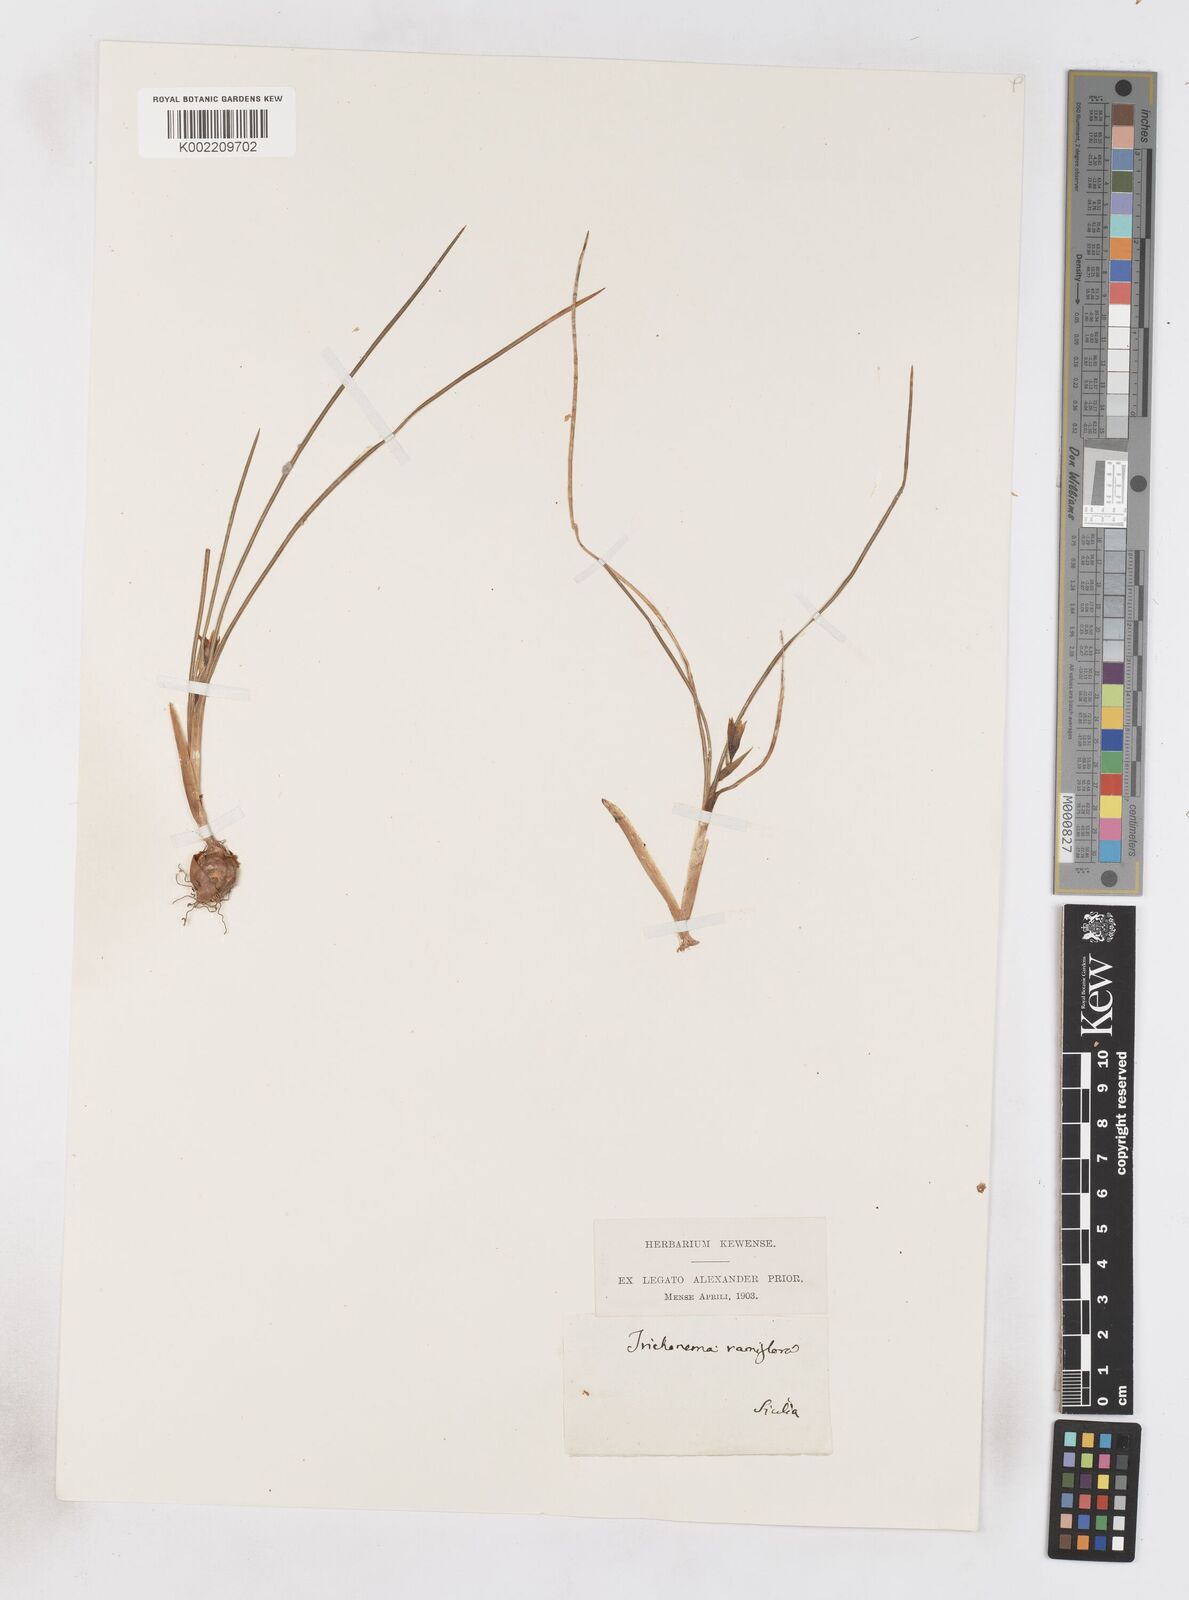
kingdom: Plantae
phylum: Tracheophyta
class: Liliopsida
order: Asparagales
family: Iridaceae
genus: Romulea
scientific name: Romulea ramiflora
